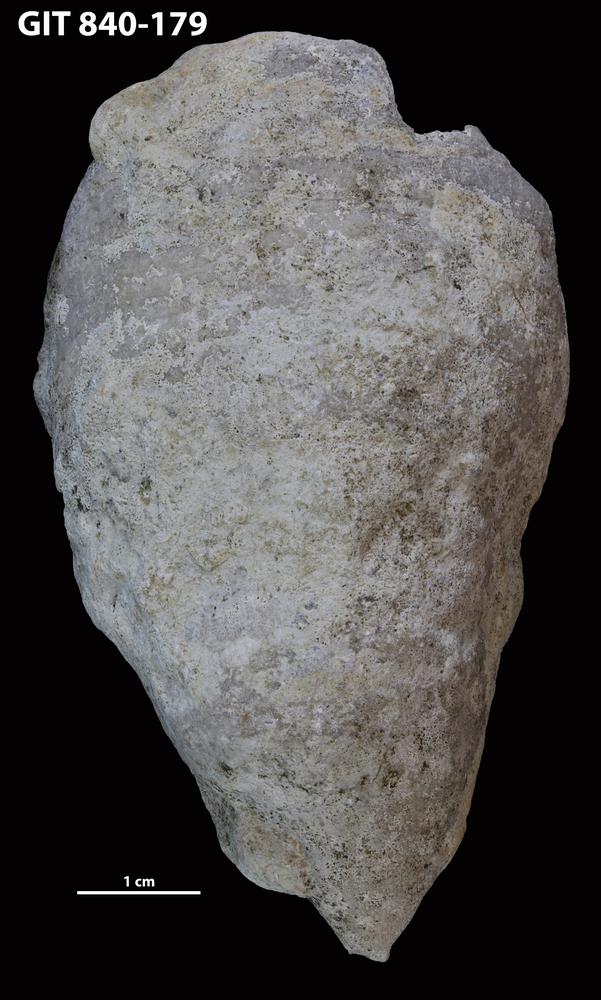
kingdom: Animalia
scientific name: Animalia
